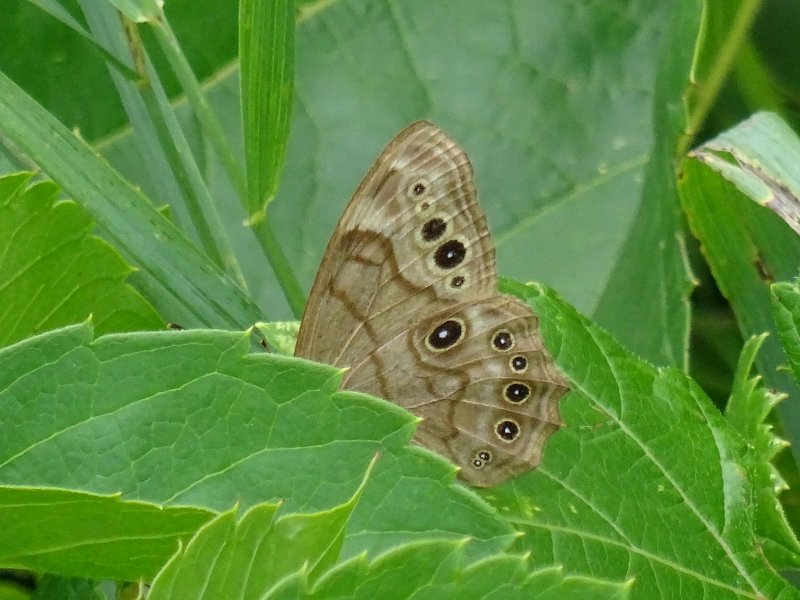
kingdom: Animalia
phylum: Arthropoda
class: Insecta
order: Lepidoptera
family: Nymphalidae
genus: Lethe
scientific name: Lethe anthedon
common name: Northern Pearly-Eye
